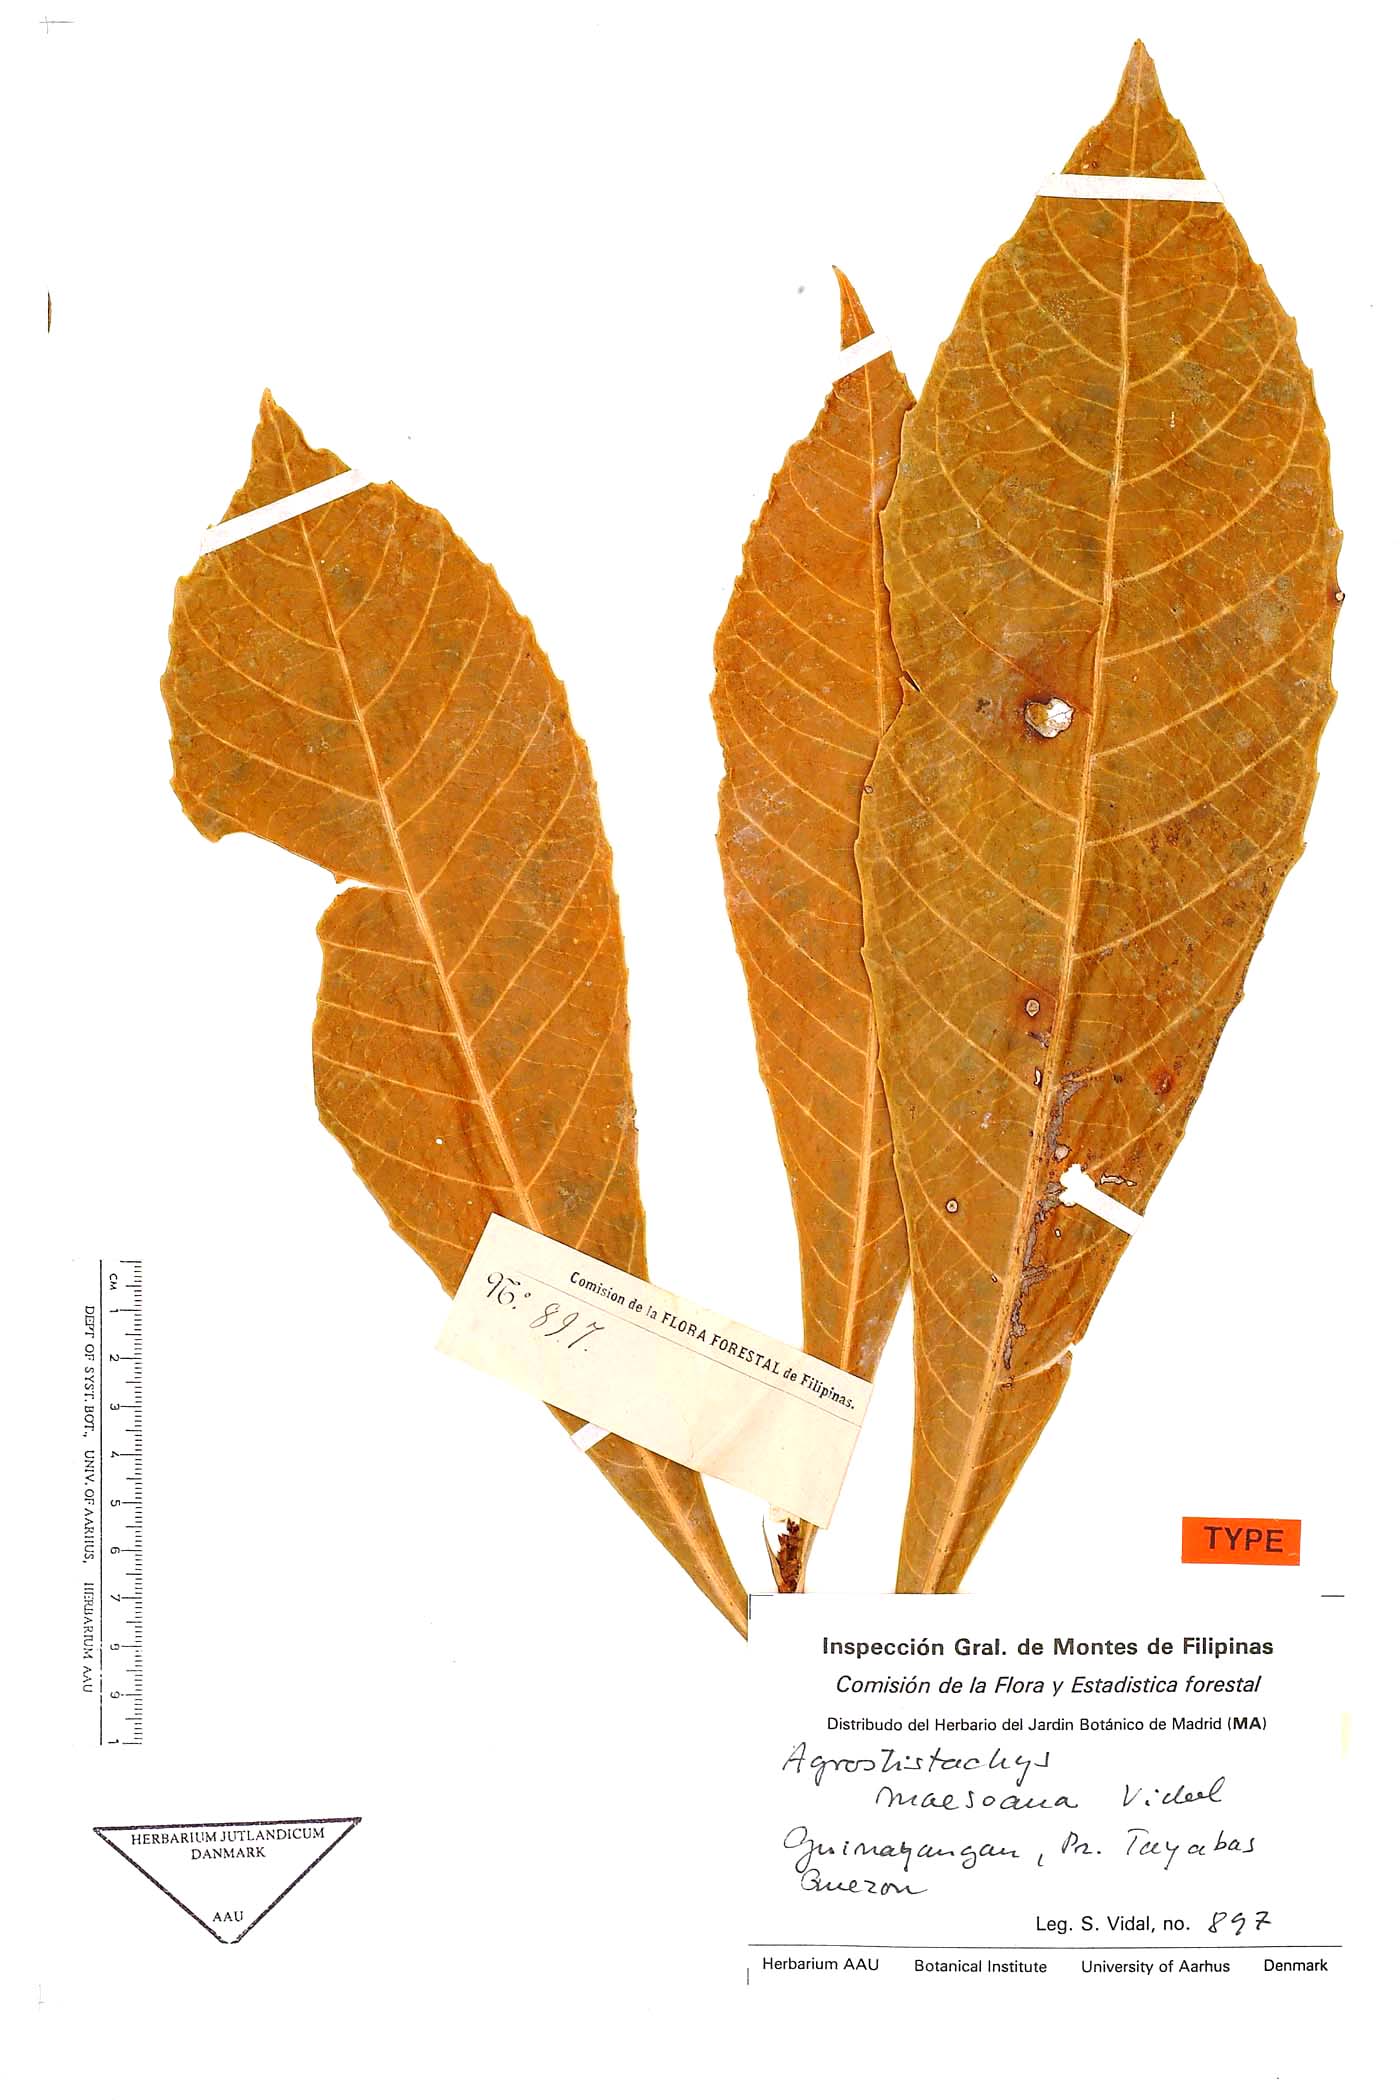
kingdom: Plantae
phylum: Tracheophyta
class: Magnoliopsida
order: Malpighiales
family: Euphorbiaceae
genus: Agrostistachys
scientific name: Agrostistachys indica
